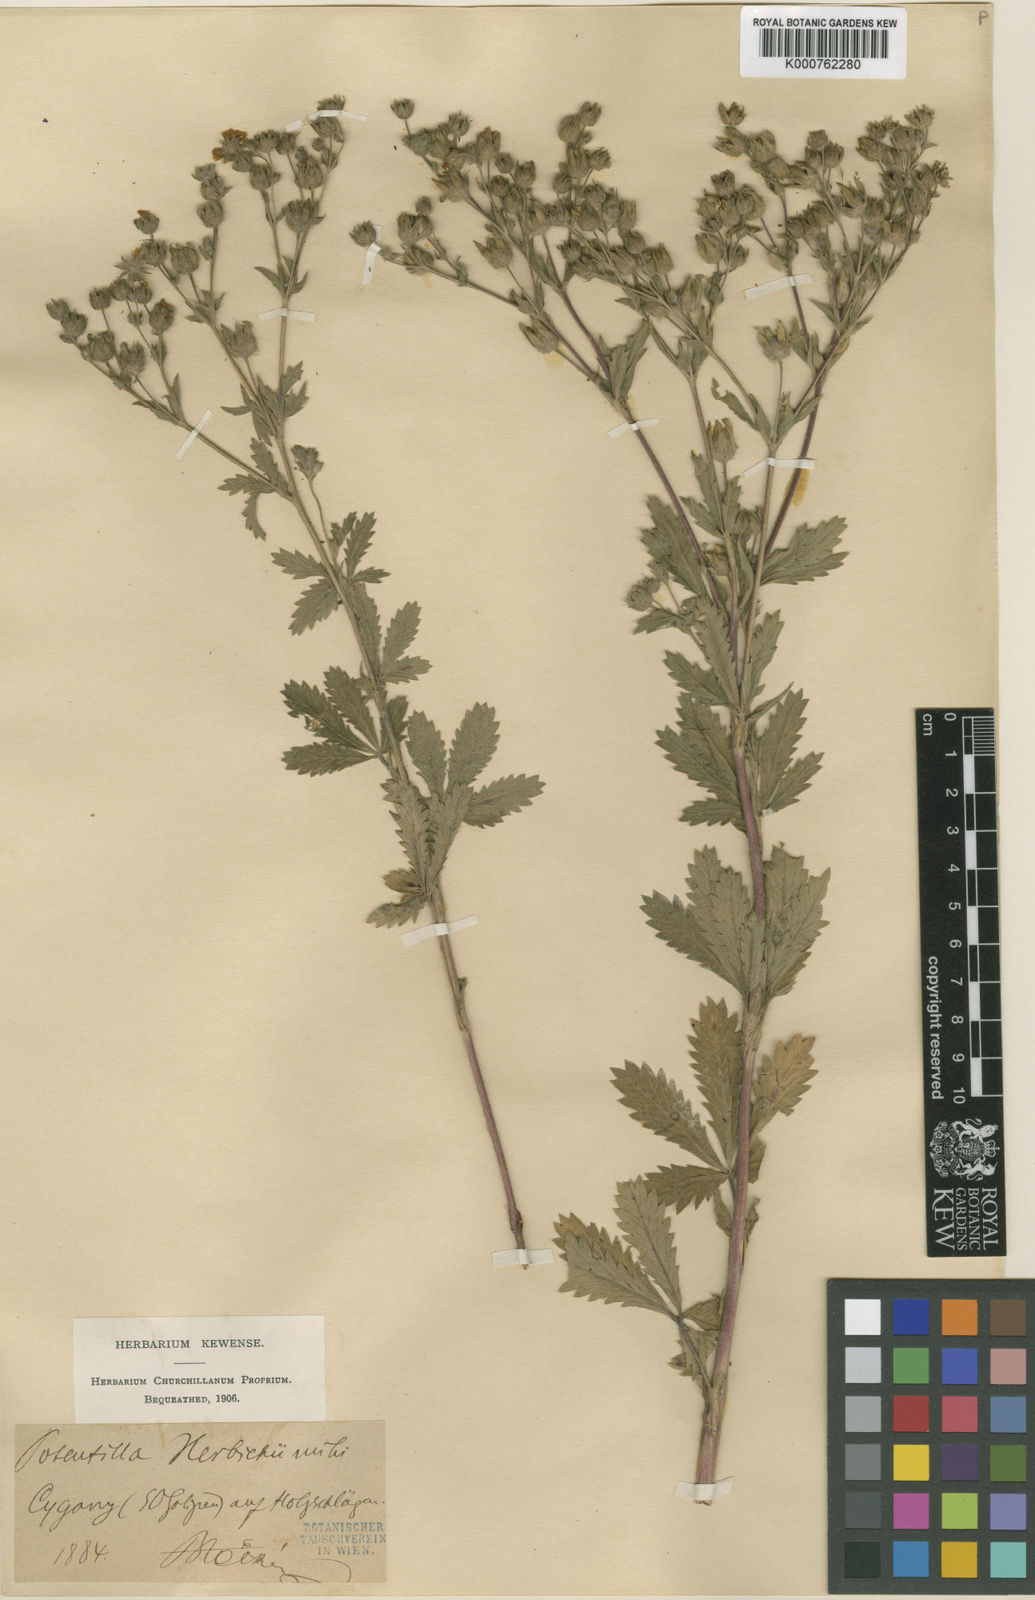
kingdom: Plantae
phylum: Tracheophyta
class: Magnoliopsida
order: Rosales
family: Rosaceae
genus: Potentilla
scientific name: Potentilla recta
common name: Sulphur cinquefoil
